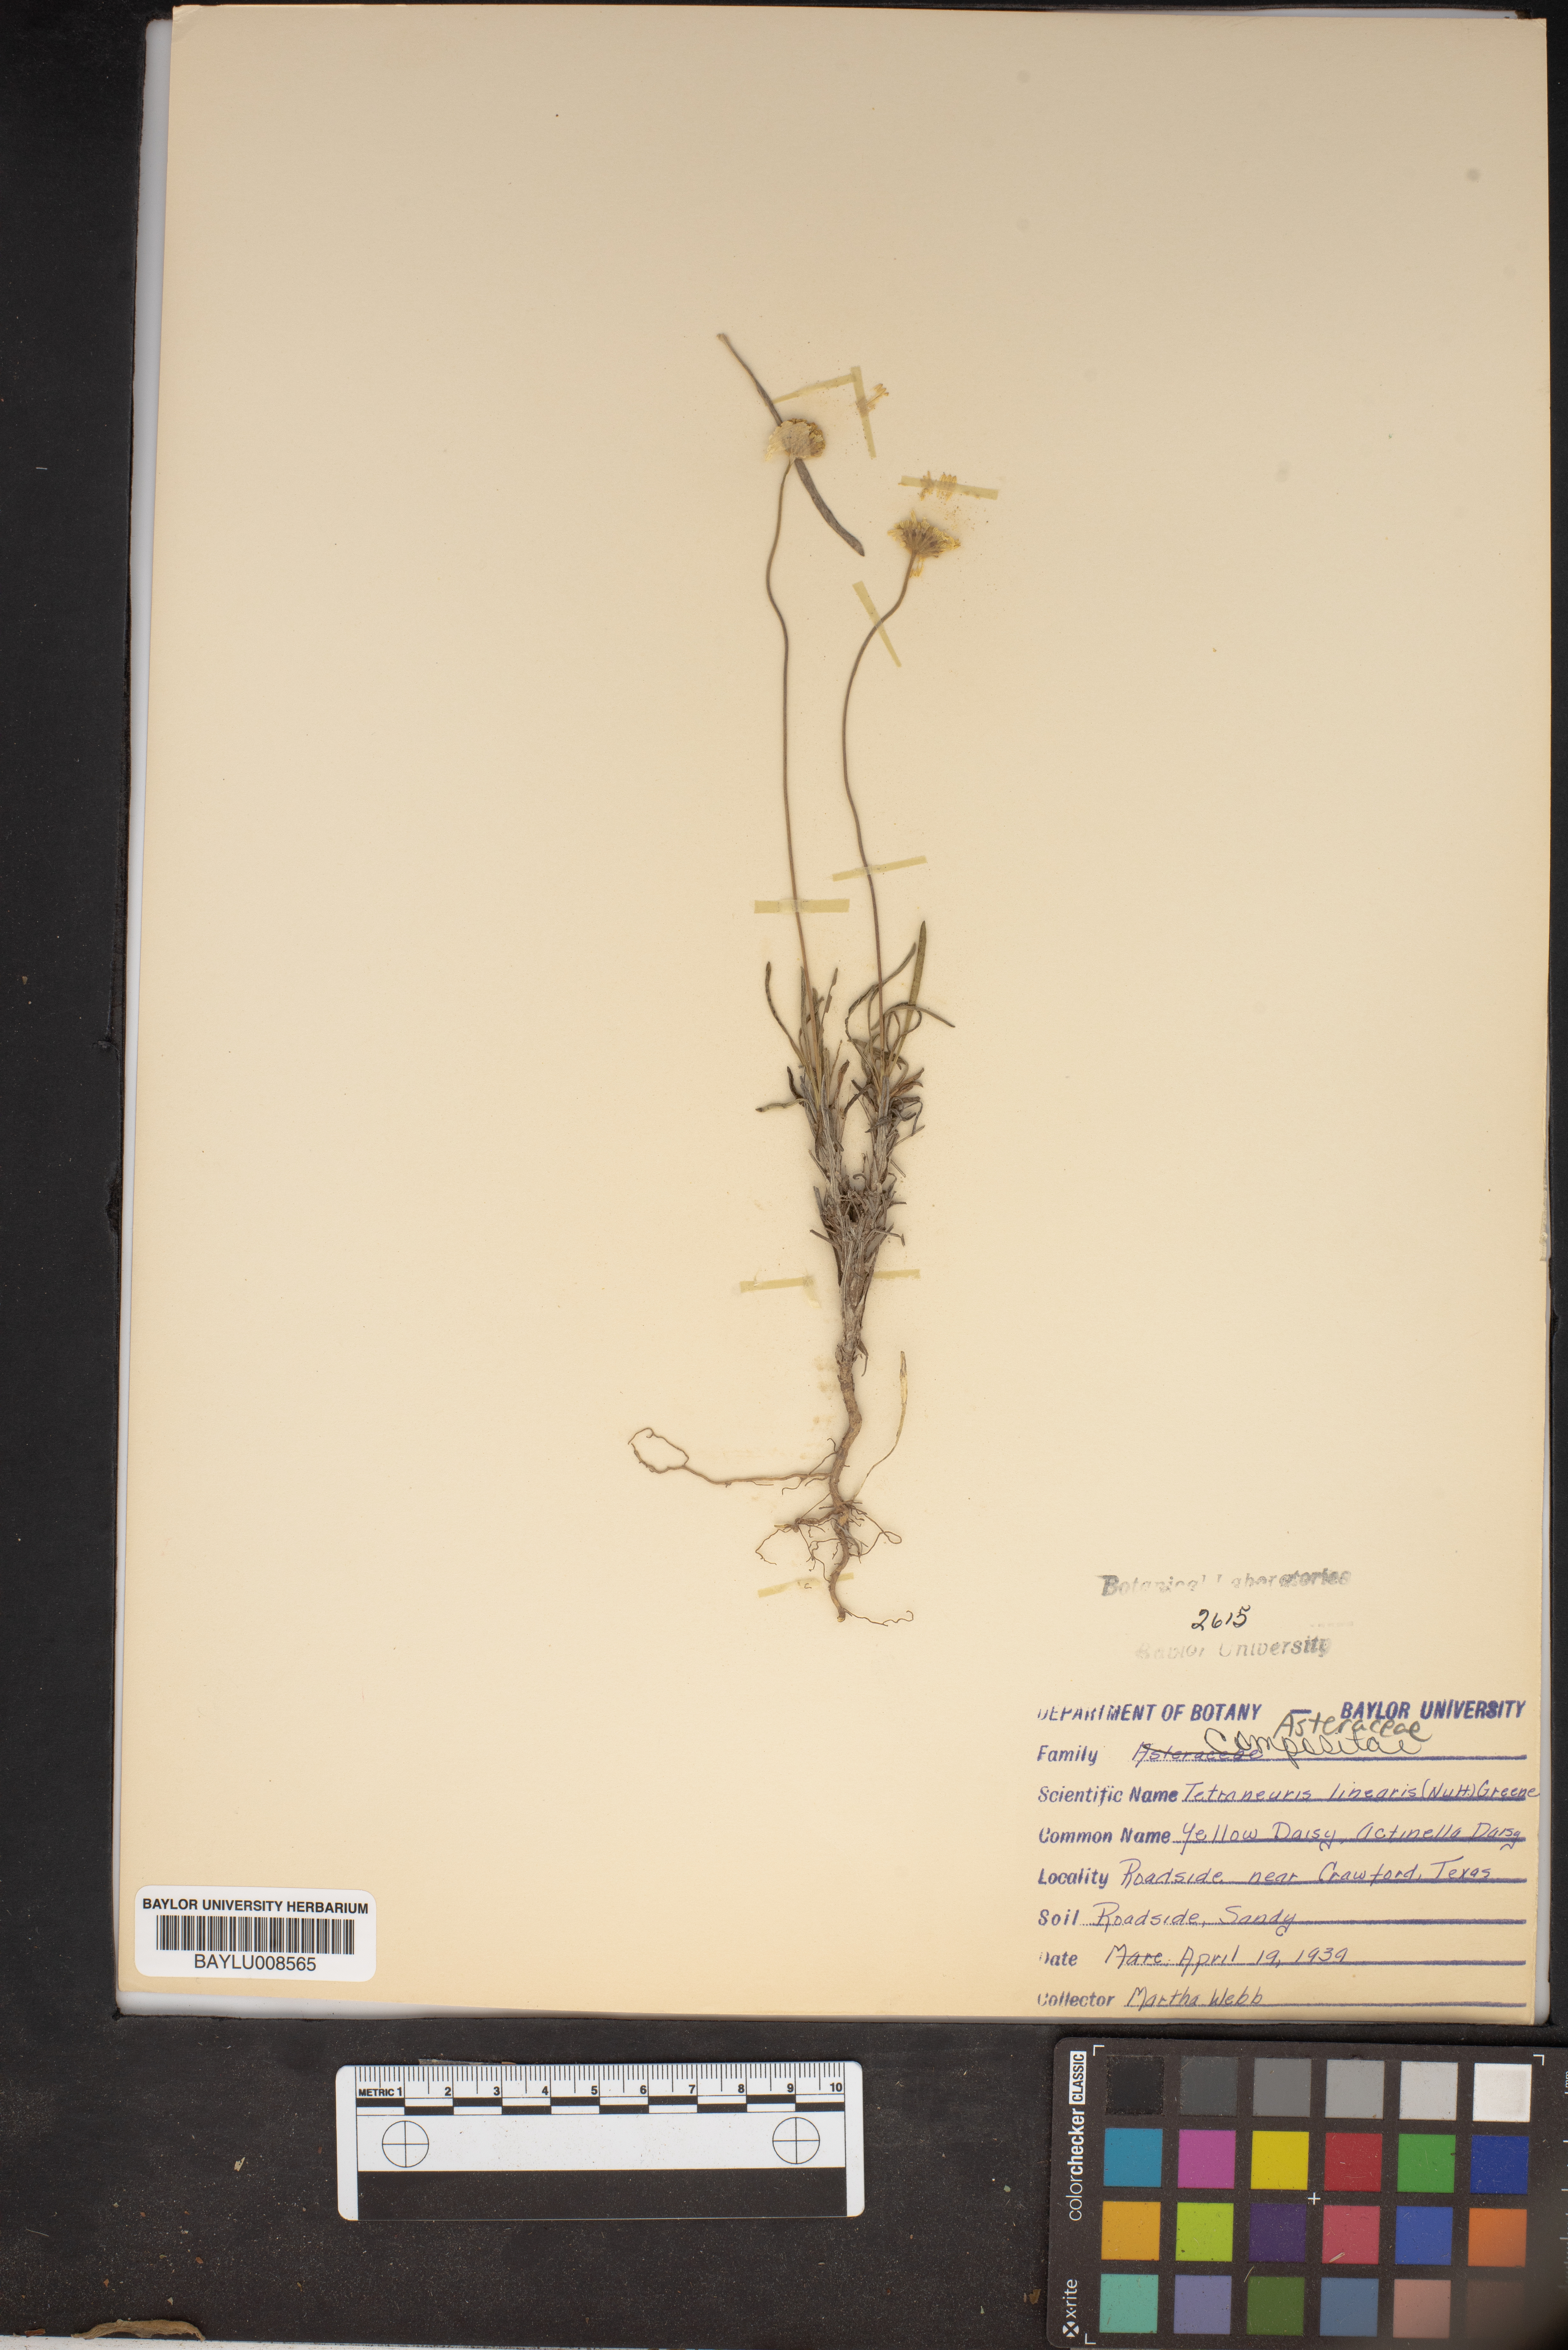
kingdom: Plantae
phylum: Tracheophyta
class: Magnoliopsida
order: Asterales
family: Asteraceae
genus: Tetraneuris
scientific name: Tetraneuris scaposa
